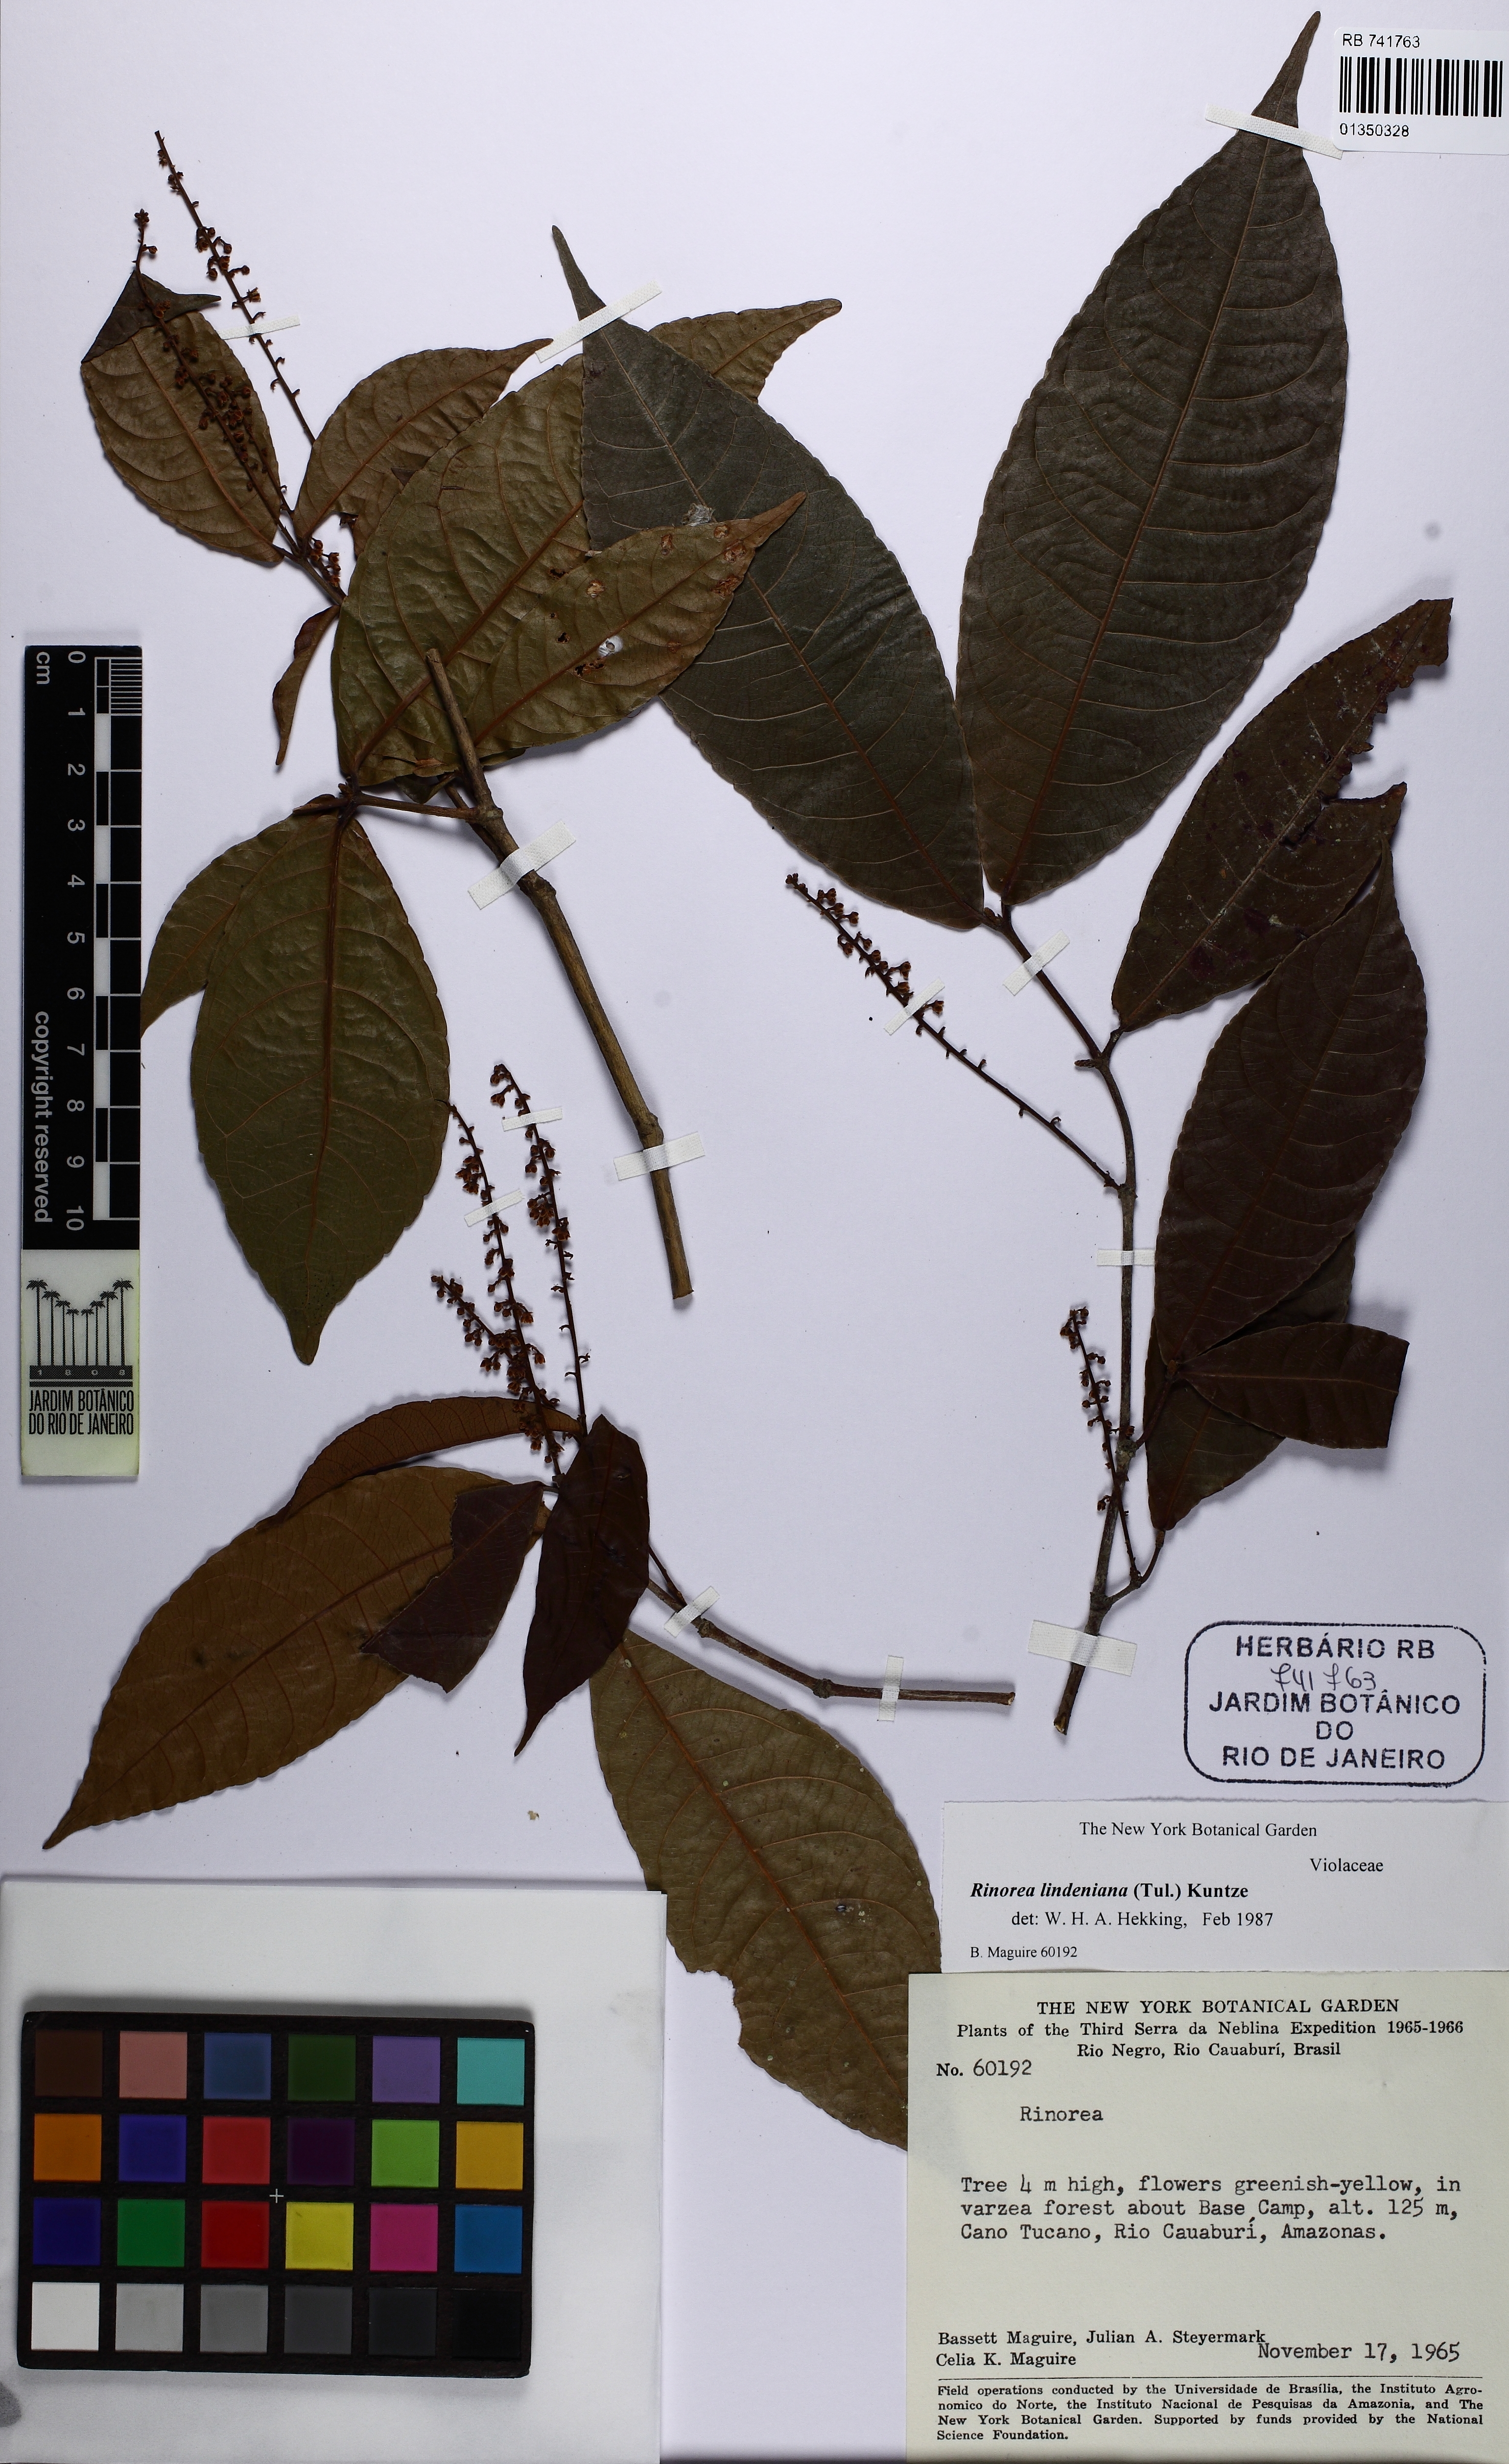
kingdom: Plantae
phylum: Tracheophyta
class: Magnoliopsida
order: Malpighiales
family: Violaceae
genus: Rinorea
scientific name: Rinorea lindeniana
